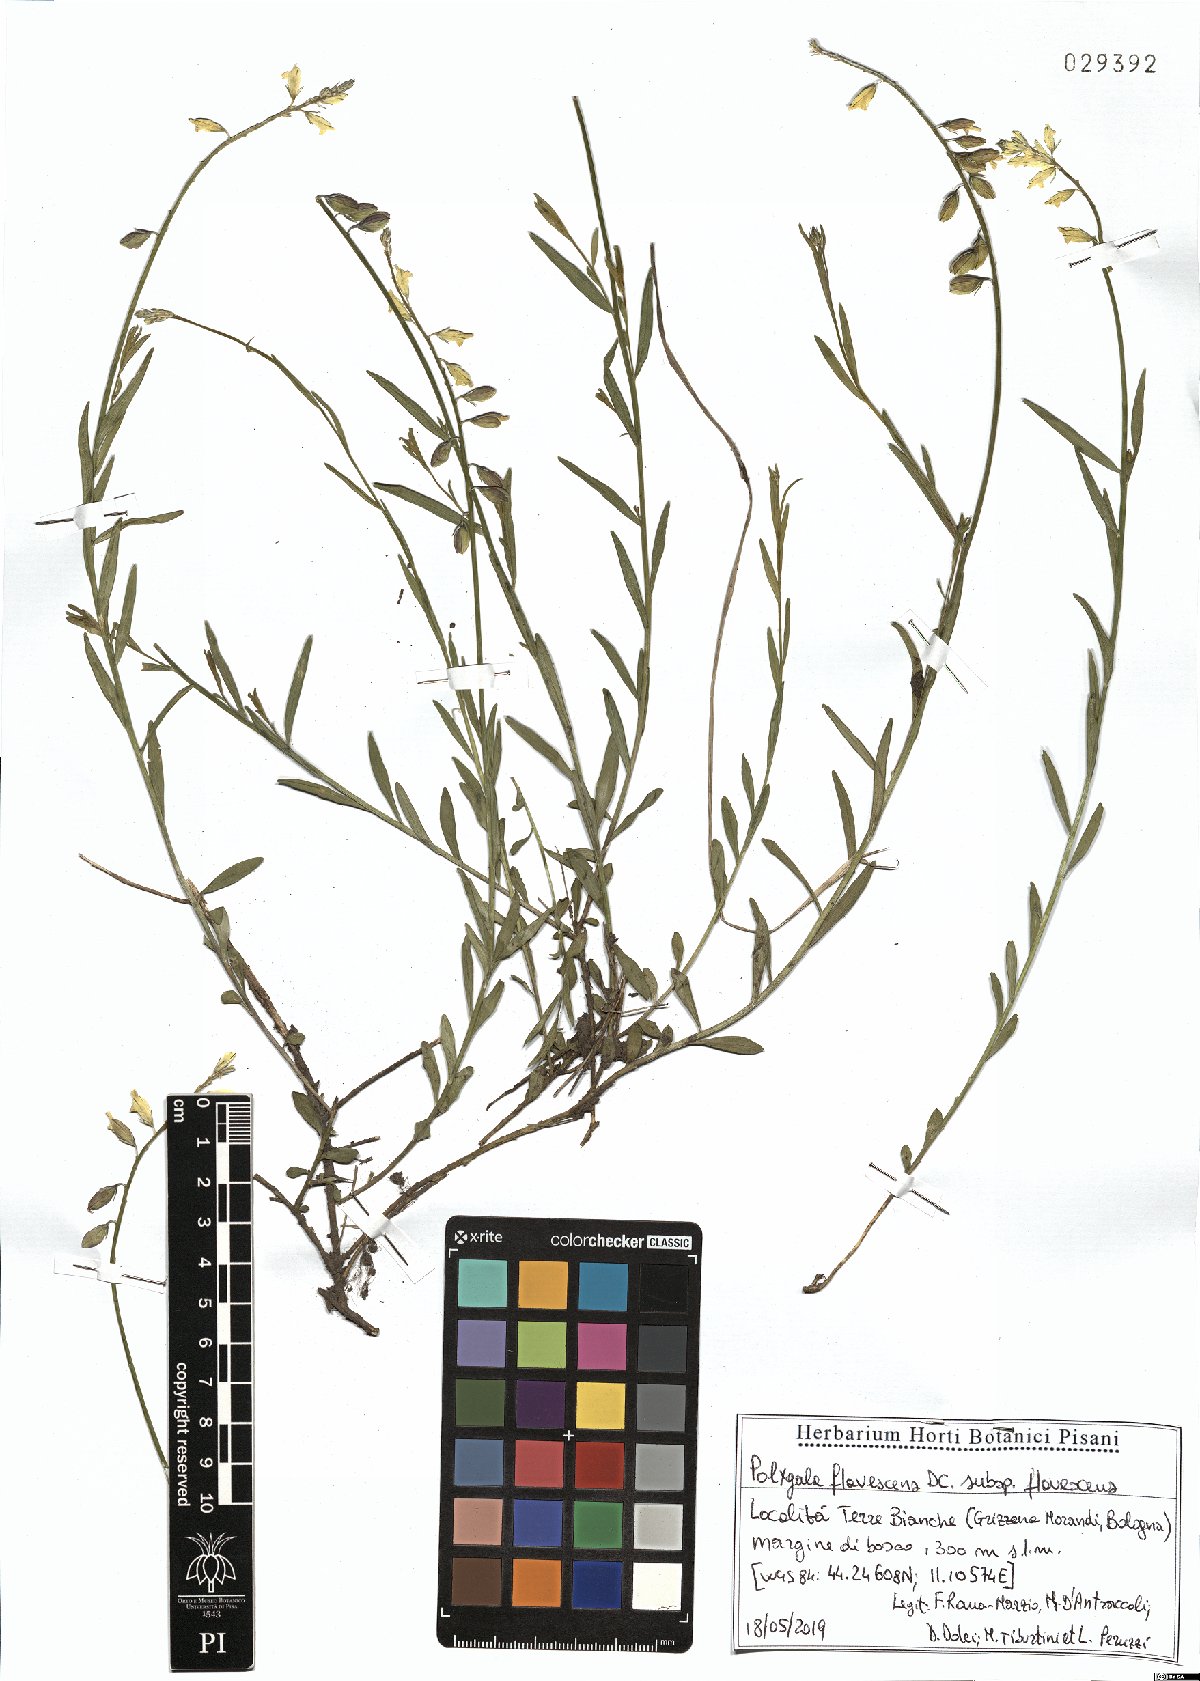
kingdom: Plantae
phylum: Tracheophyta
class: Magnoliopsida
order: Fabales
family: Polygalaceae
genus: Polygala
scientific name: Polygala flavescens
